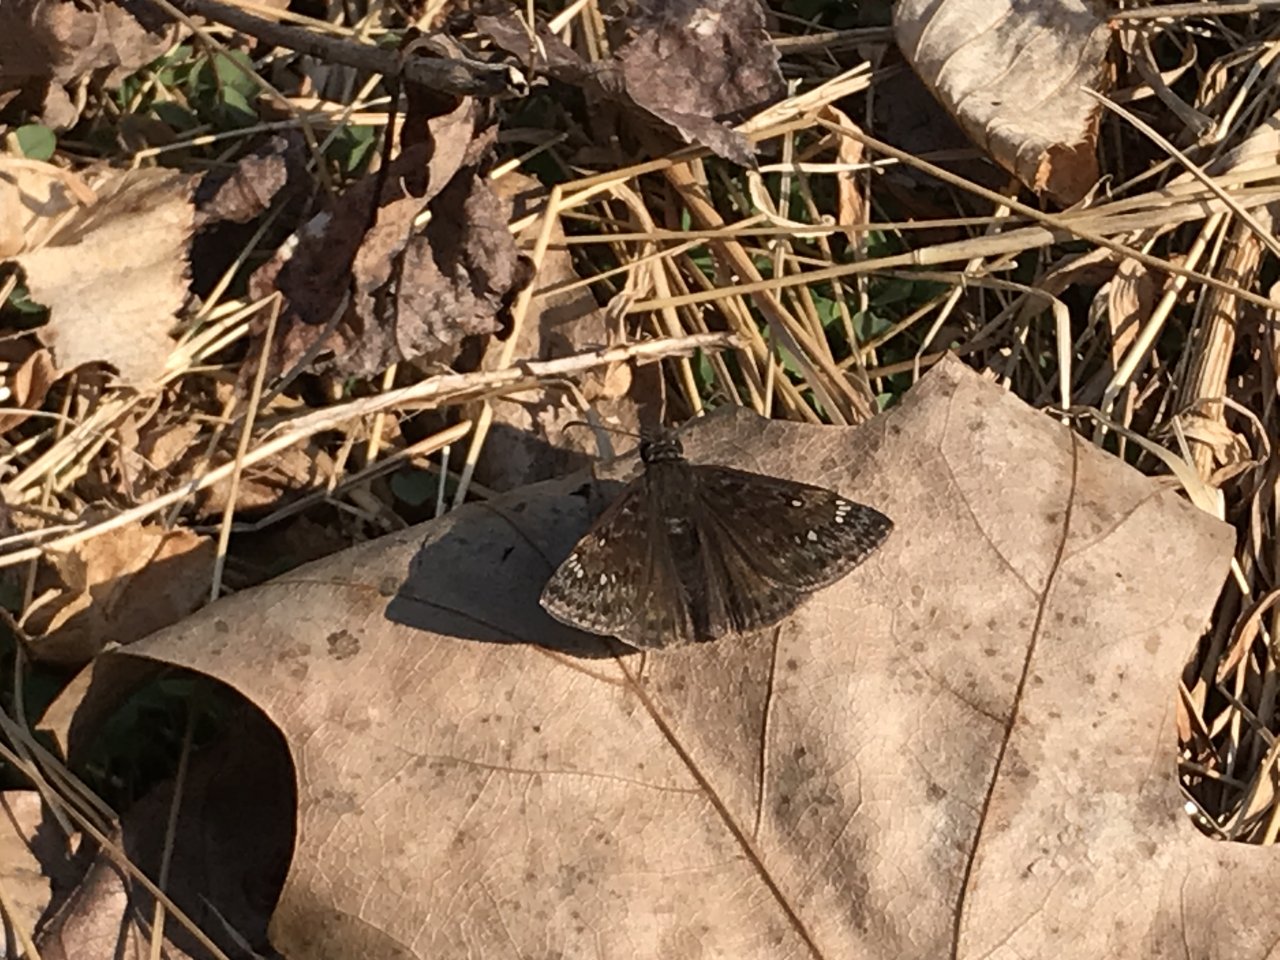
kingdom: Animalia
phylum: Arthropoda
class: Insecta
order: Lepidoptera
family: Hesperiidae
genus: Gesta
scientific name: Gesta
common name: Juvenal's Duskywing
